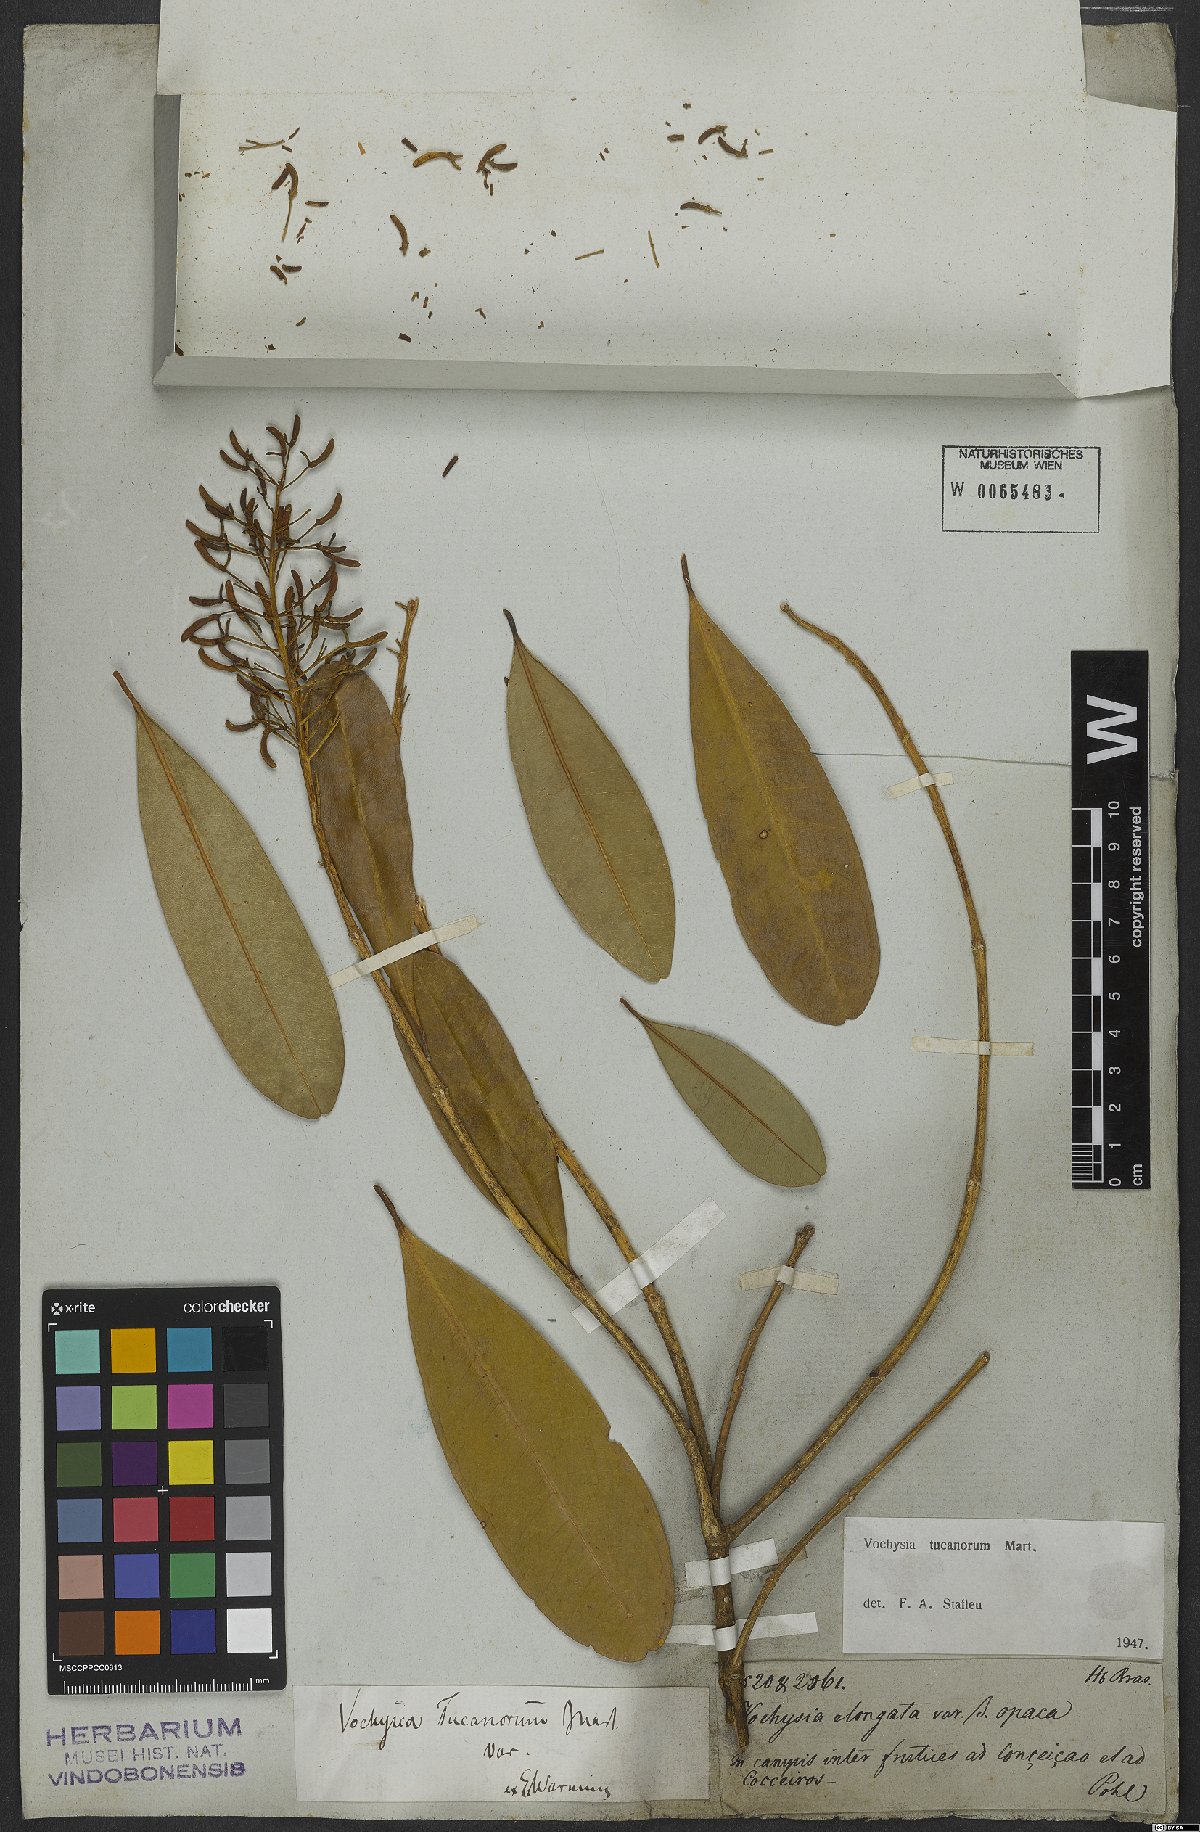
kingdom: Plantae
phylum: Tracheophyta
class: Magnoliopsida
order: Myrtales
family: Vochysiaceae
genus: Vochysia
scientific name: Vochysia tucanorum
